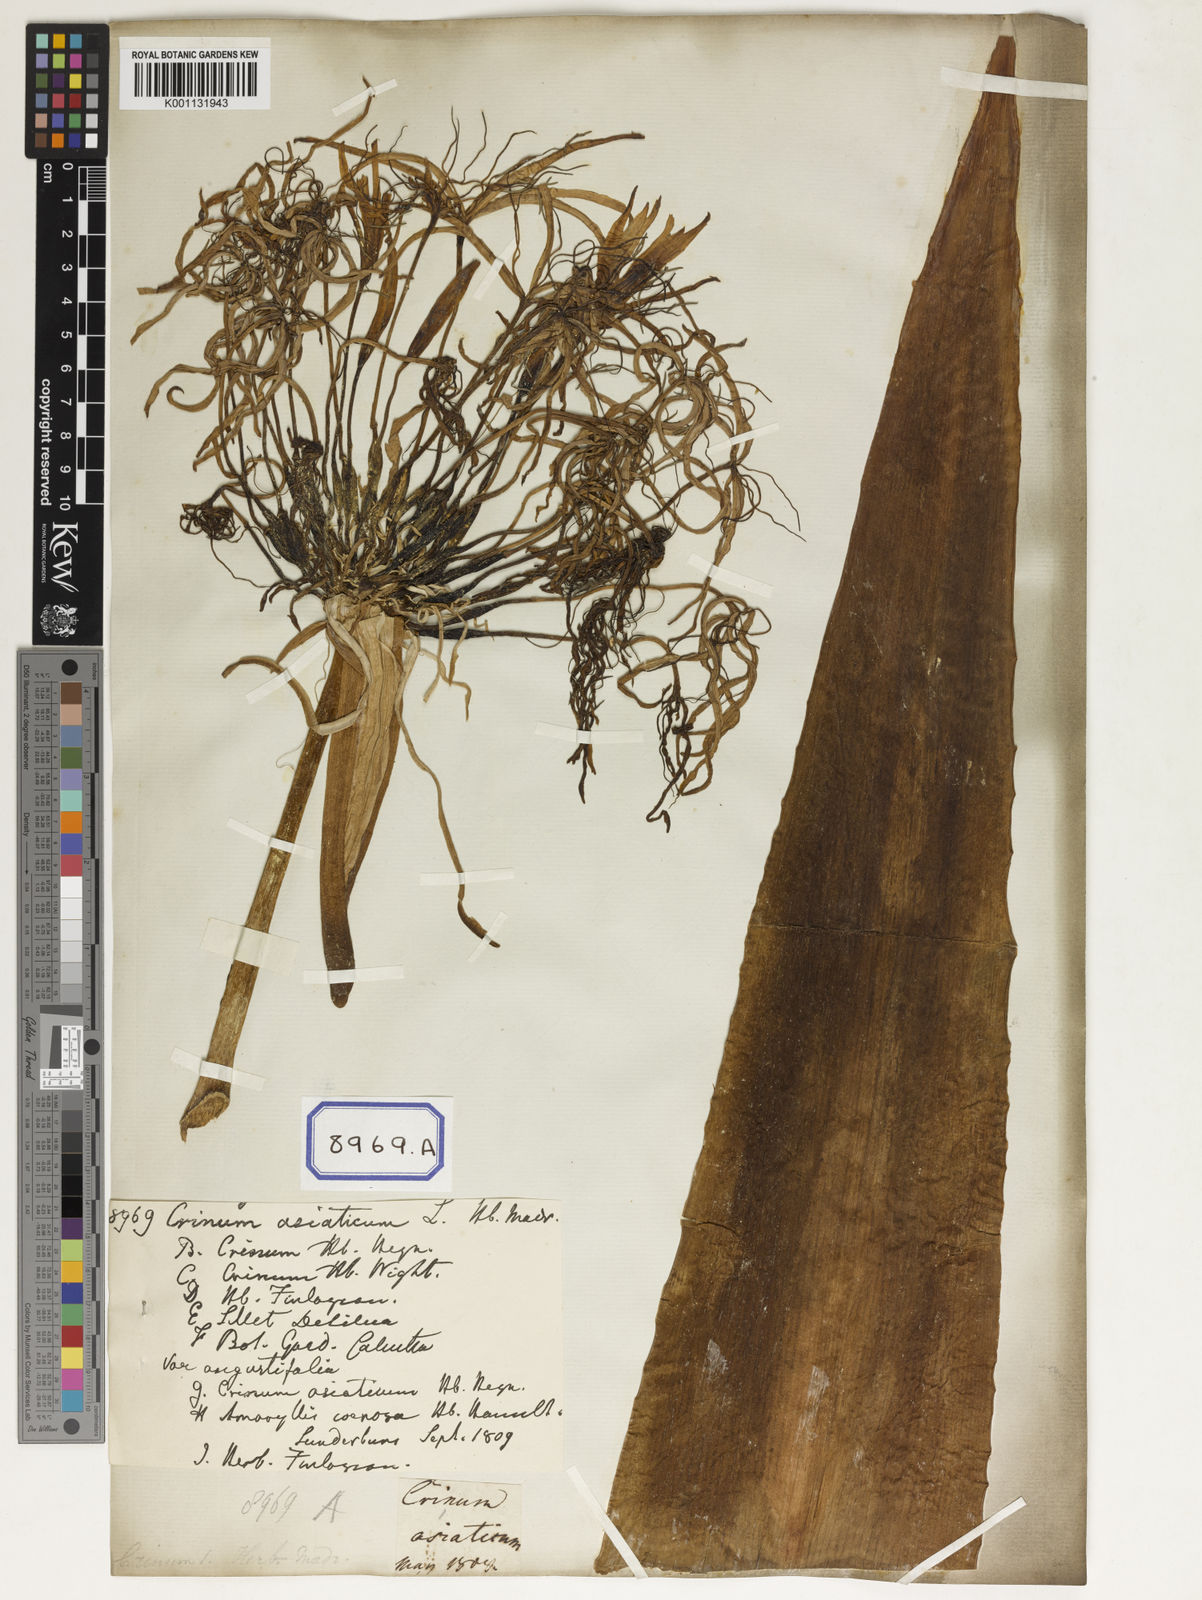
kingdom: Plantae
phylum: Tracheophyta
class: Liliopsida
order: Asparagales
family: Amaryllidaceae
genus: Crinum
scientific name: Crinum asiaticum
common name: Poisonbulb
